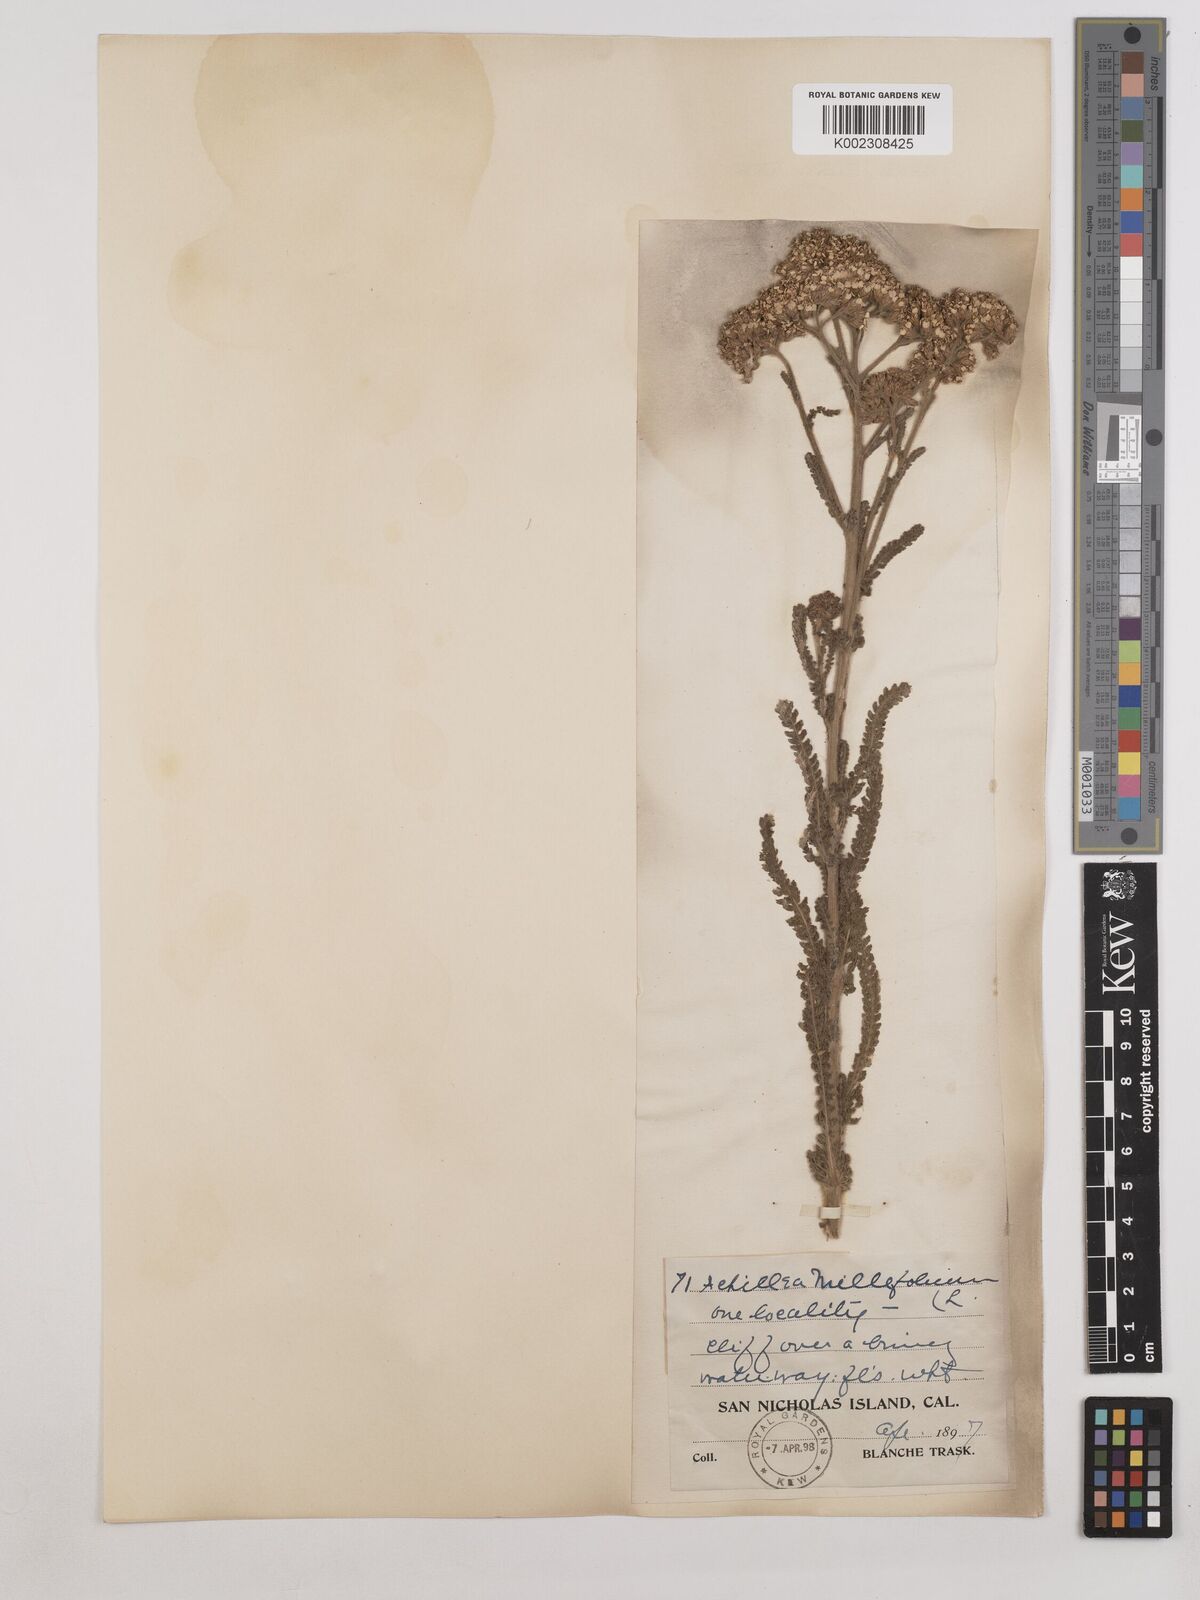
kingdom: Plantae
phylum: Tracheophyta
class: Magnoliopsida
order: Asterales
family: Asteraceae
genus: Achillea
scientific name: Achillea millefolium
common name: Yarrow
